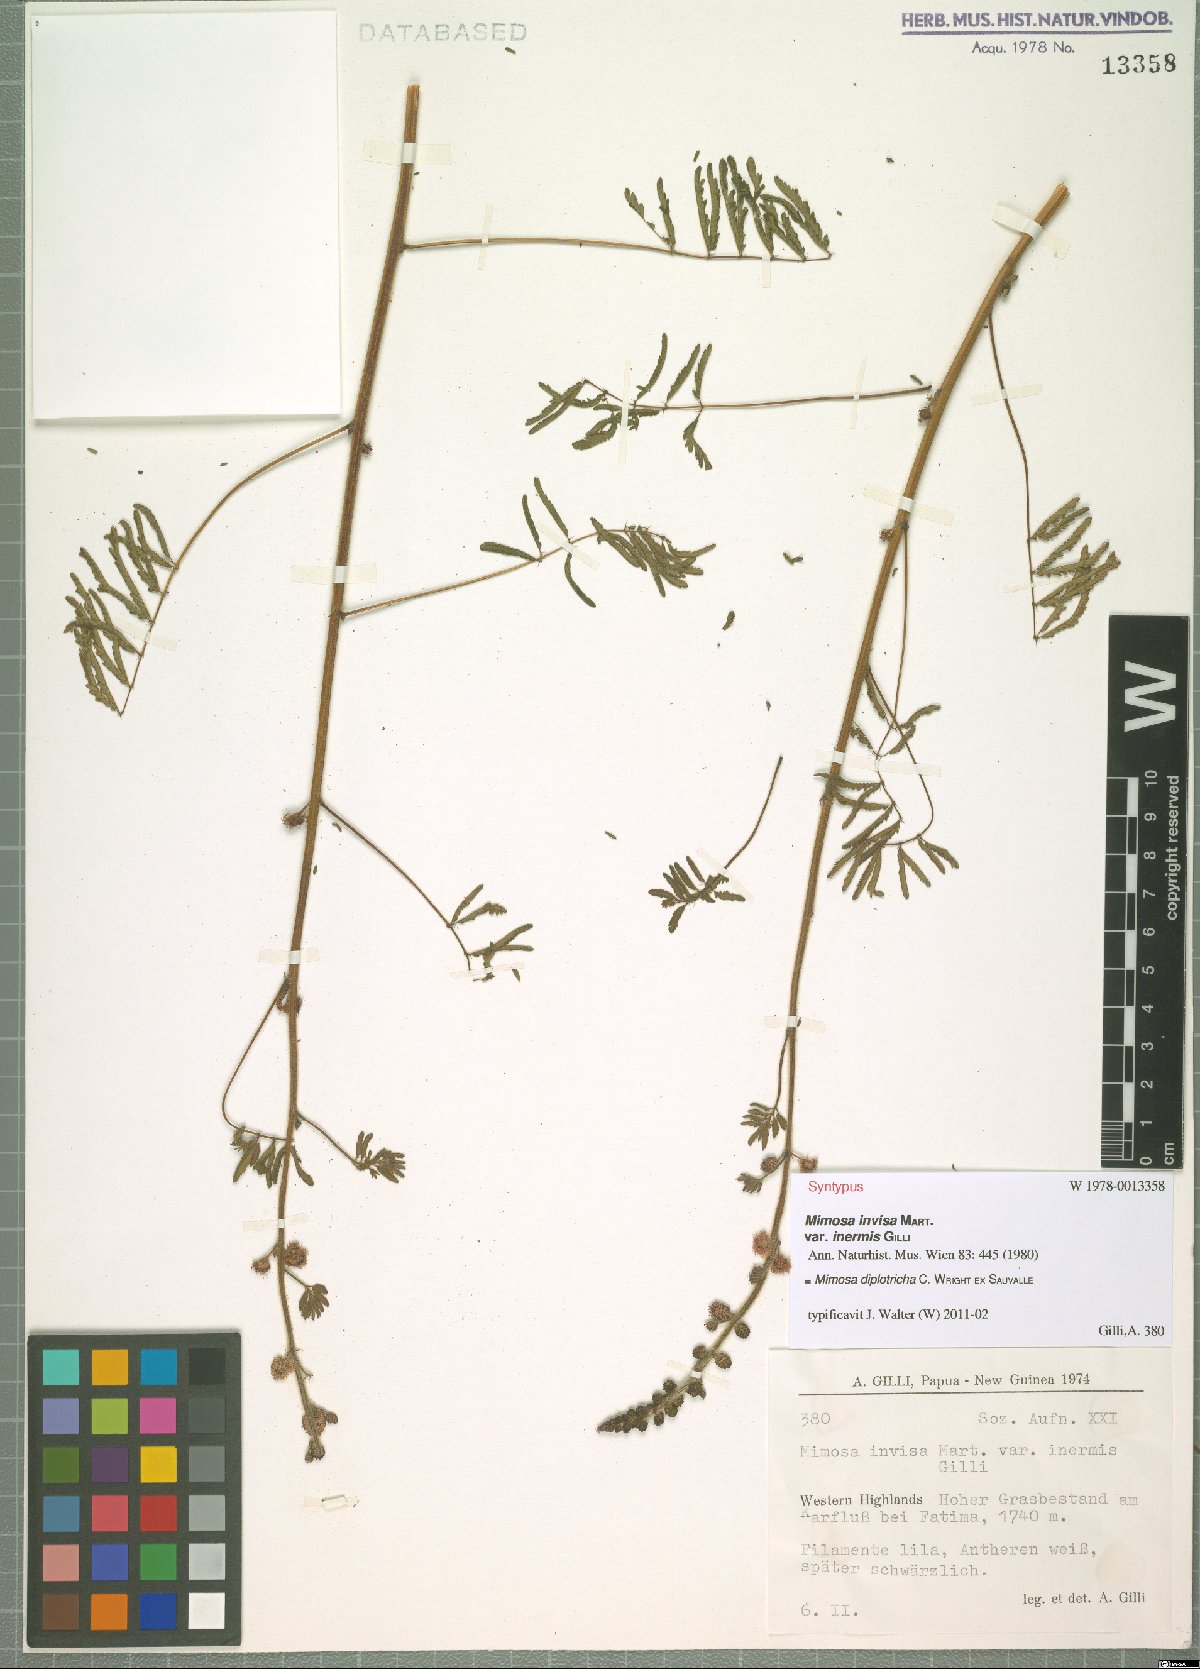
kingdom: Plantae
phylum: Tracheophyta
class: Magnoliopsida
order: Fabales
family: Fabaceae
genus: Mimosa
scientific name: Mimosa diplotricha
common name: Giant sensitive-plant
